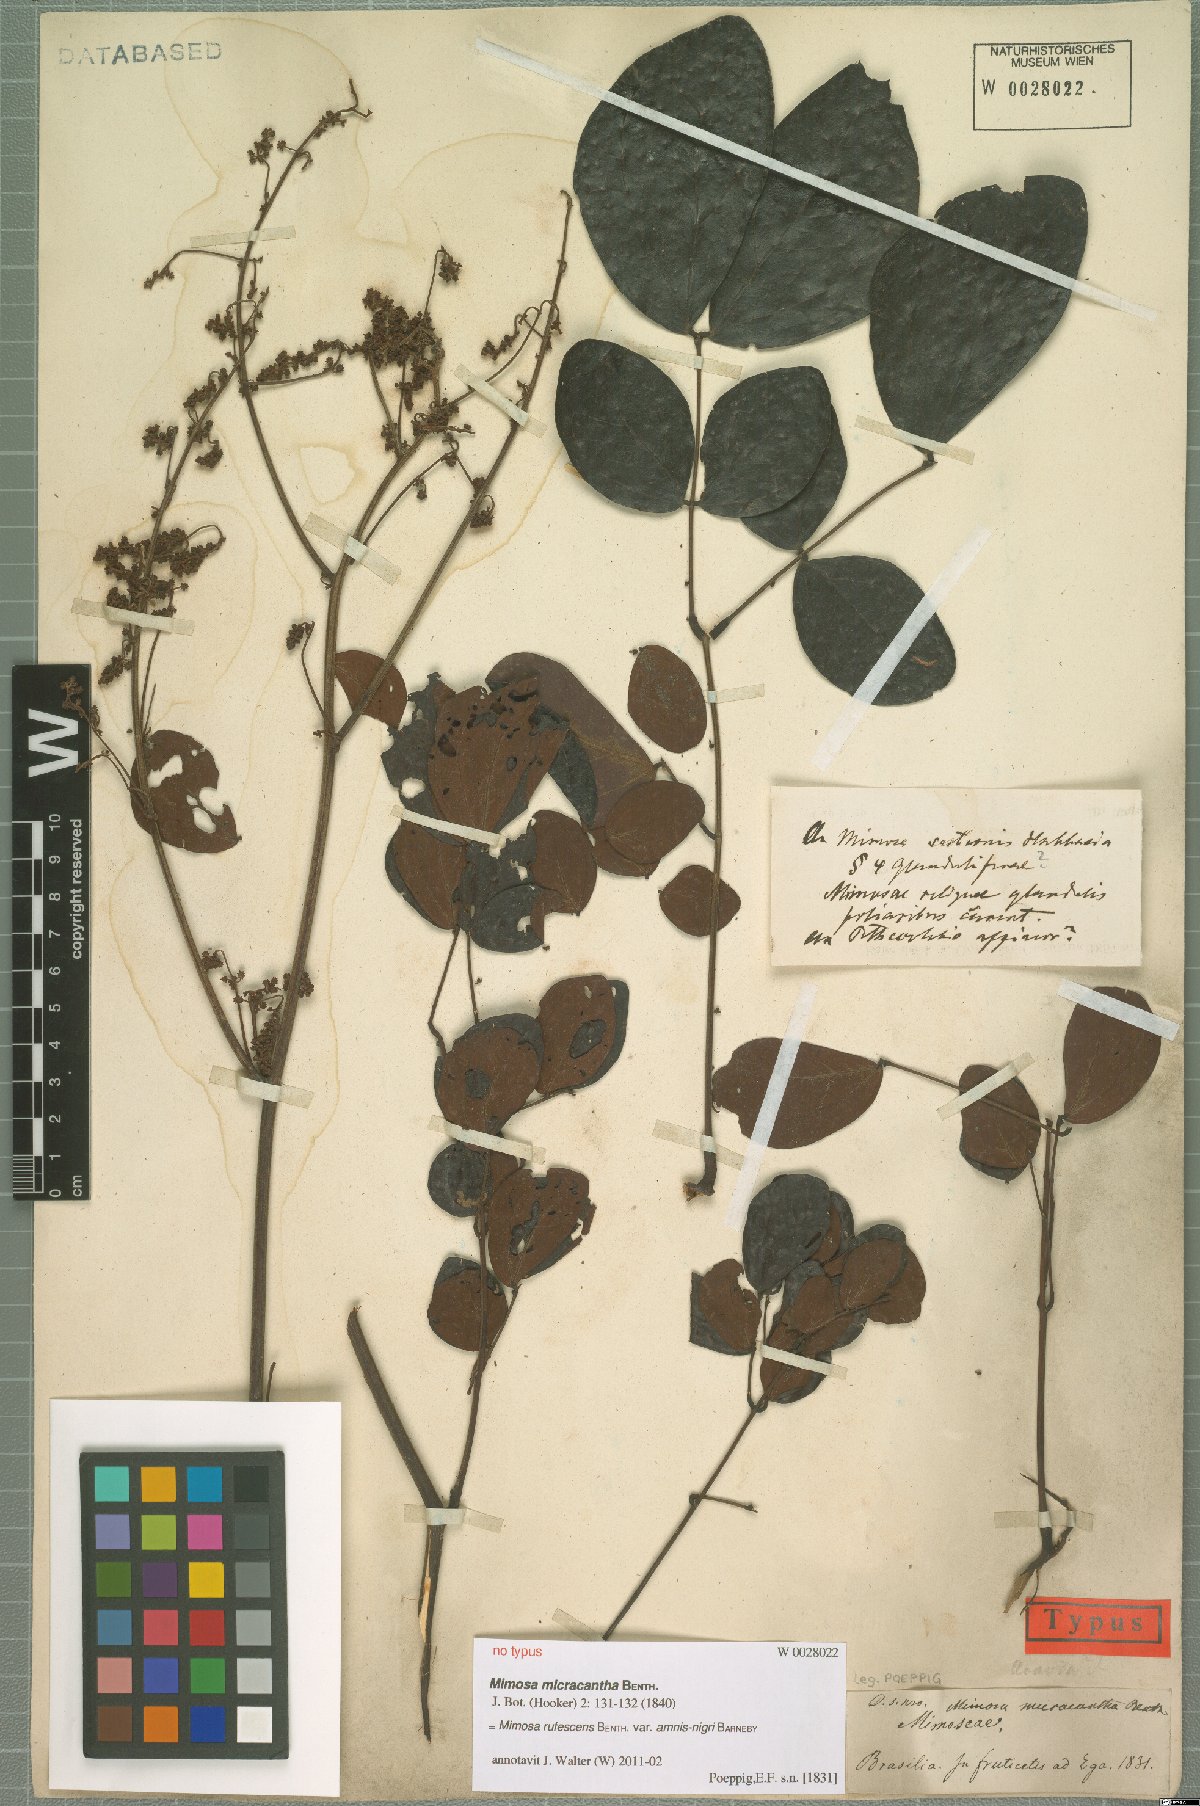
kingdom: Plantae
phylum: Tracheophyta
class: Magnoliopsida
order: Fabales
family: Fabaceae
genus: Mimosa
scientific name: Mimosa rufescens
